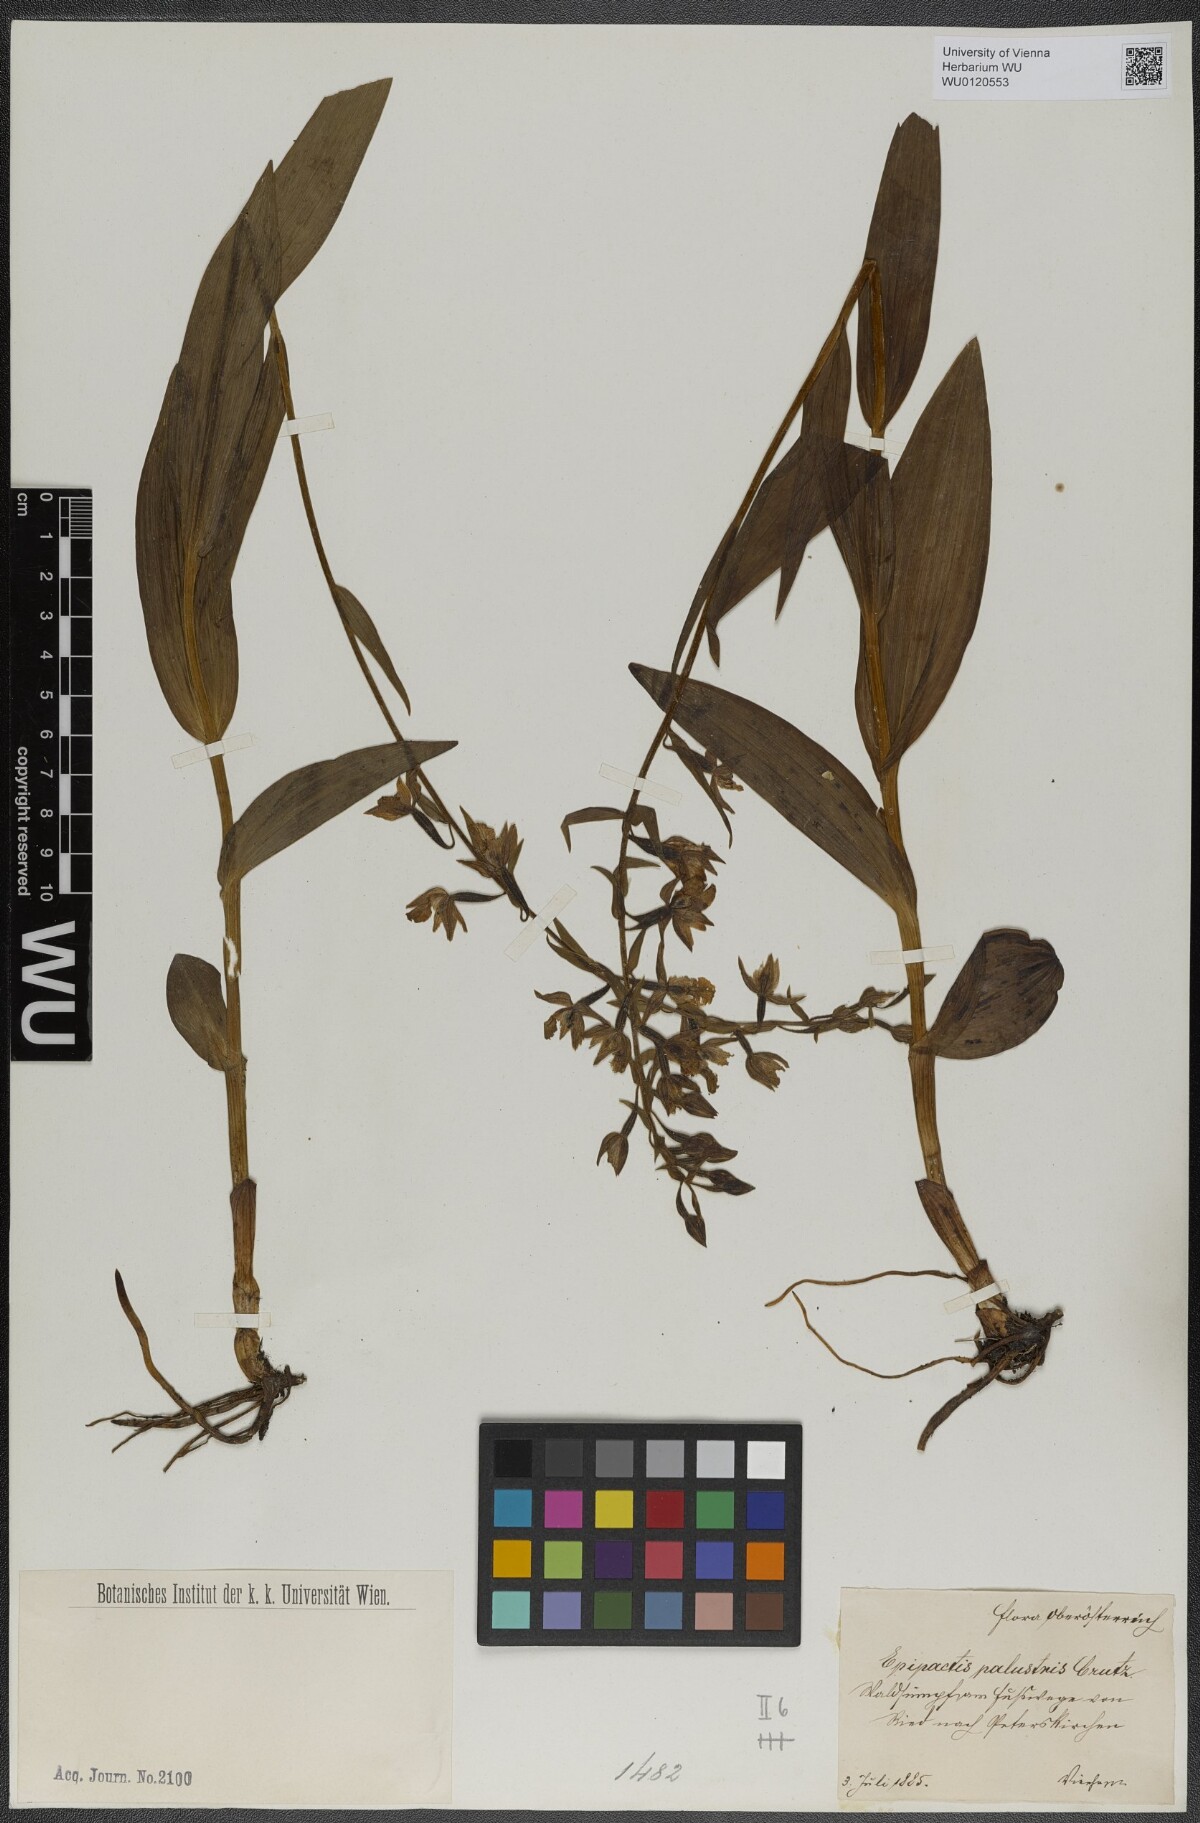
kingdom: Plantae
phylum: Tracheophyta
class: Liliopsida
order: Asparagales
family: Orchidaceae
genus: Epipactis
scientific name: Epipactis palustris
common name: Marsh helleborine
